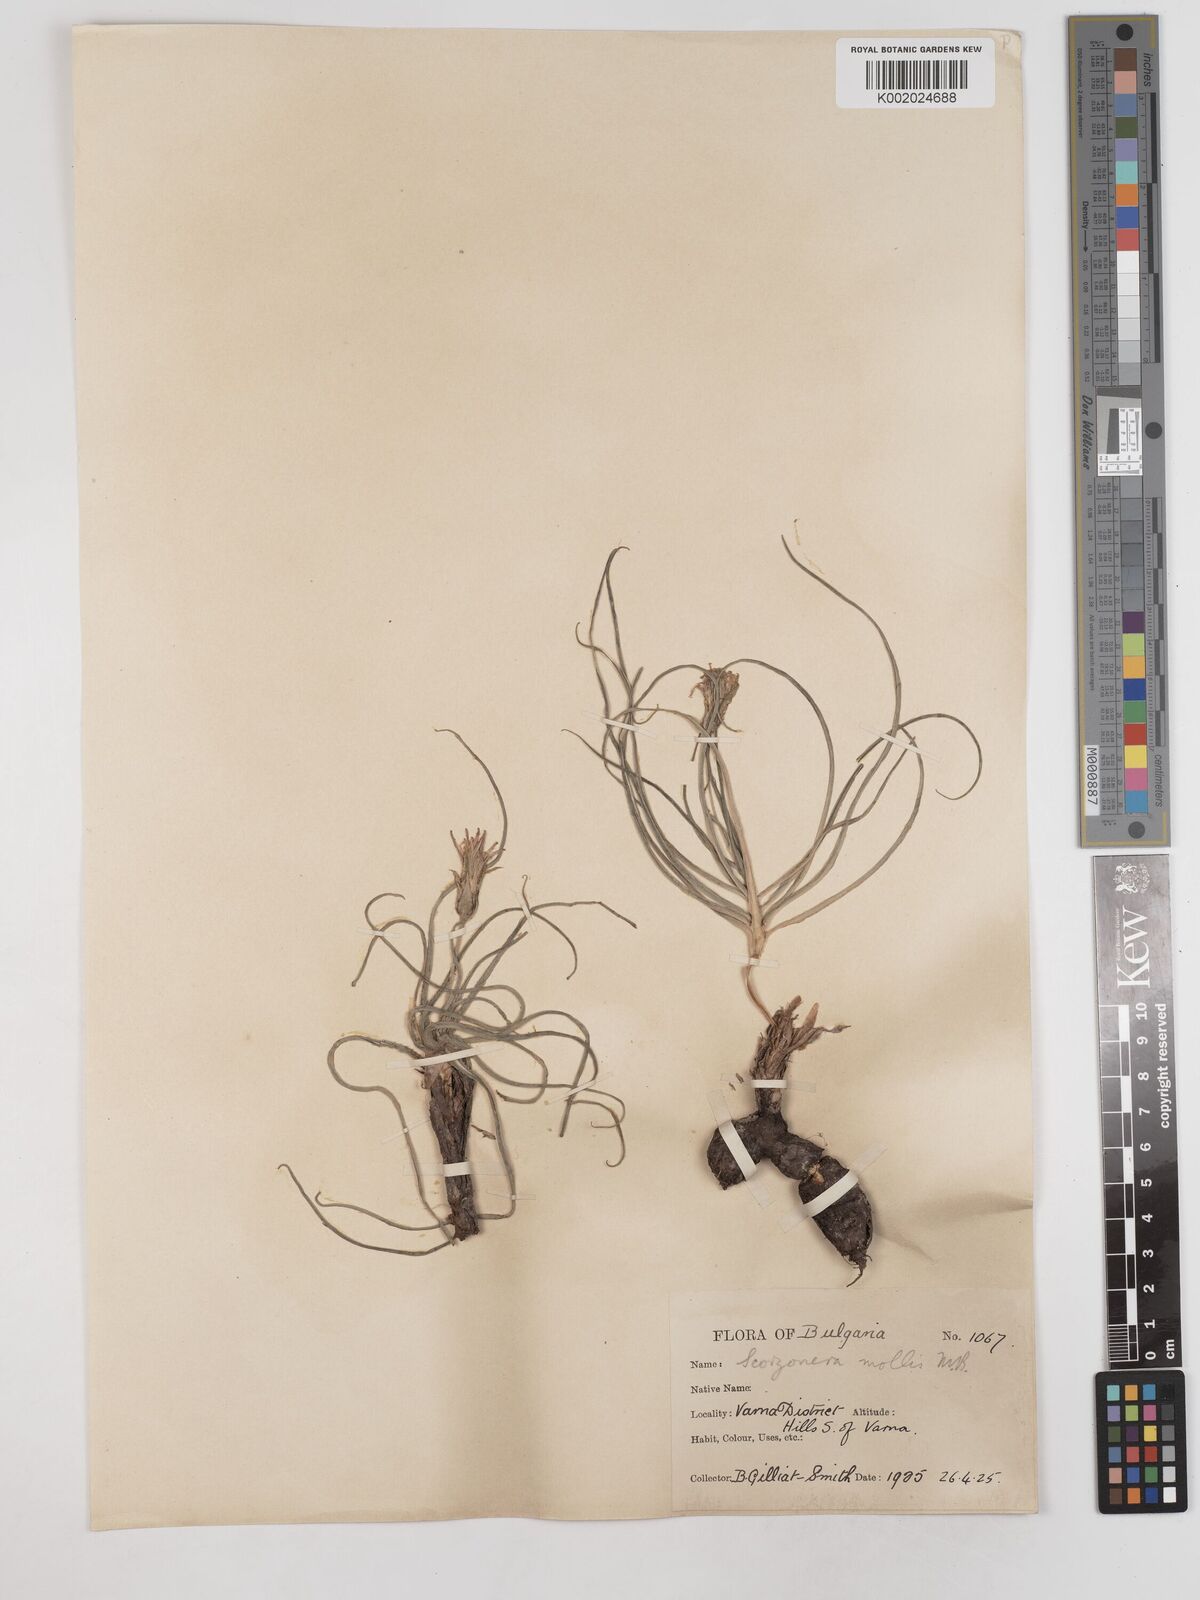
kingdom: Plantae
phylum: Tracheophyta
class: Magnoliopsida
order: Asterales
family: Asteraceae
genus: Candollea
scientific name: Candollea mollis
